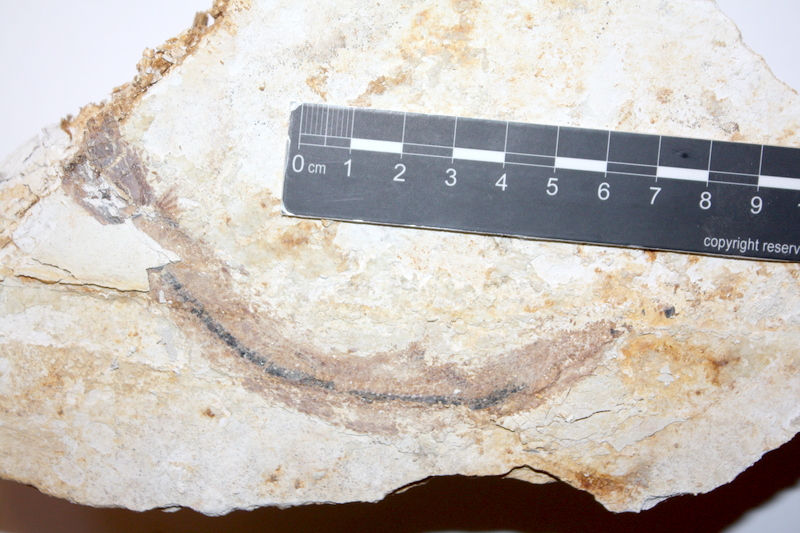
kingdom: Animalia
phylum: Chordata
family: Aspidorhynchidae
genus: Belonostomus
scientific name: Belonostomus kochii
